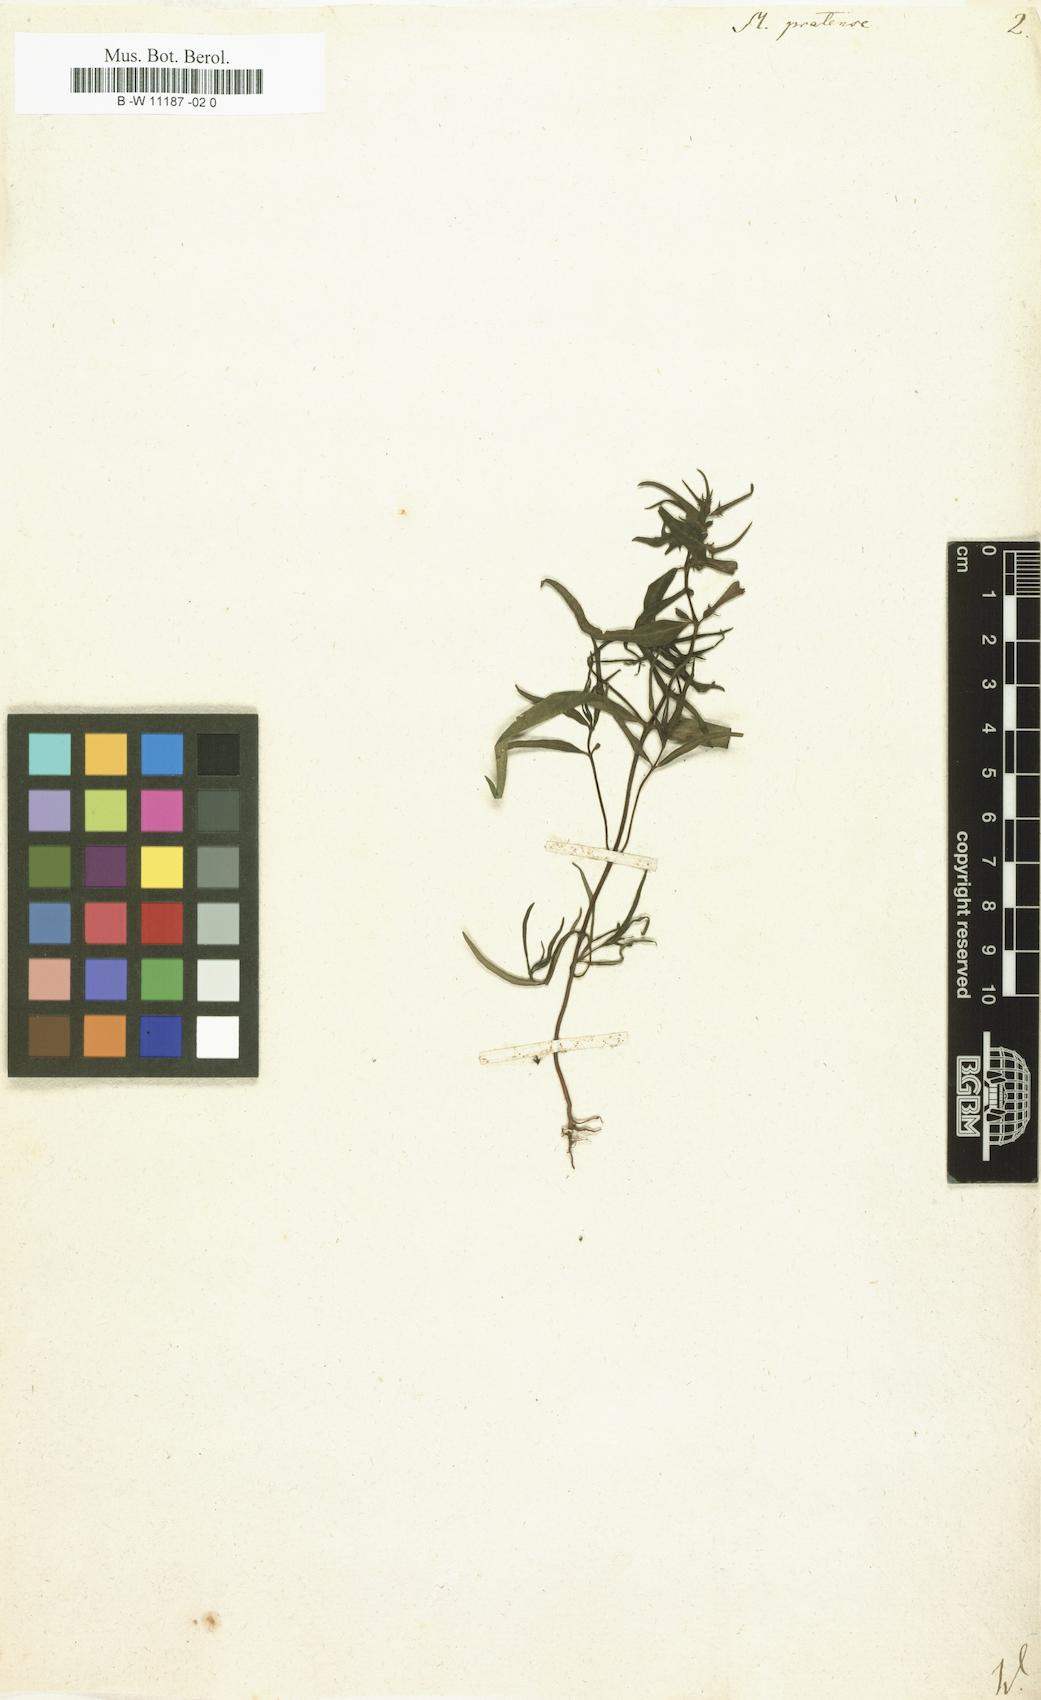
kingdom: Plantae
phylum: Tracheophyta
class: Magnoliopsida
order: Lamiales
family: Orobanchaceae
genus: Melampyrum
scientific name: Melampyrum pratense
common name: Common cow-wheat
